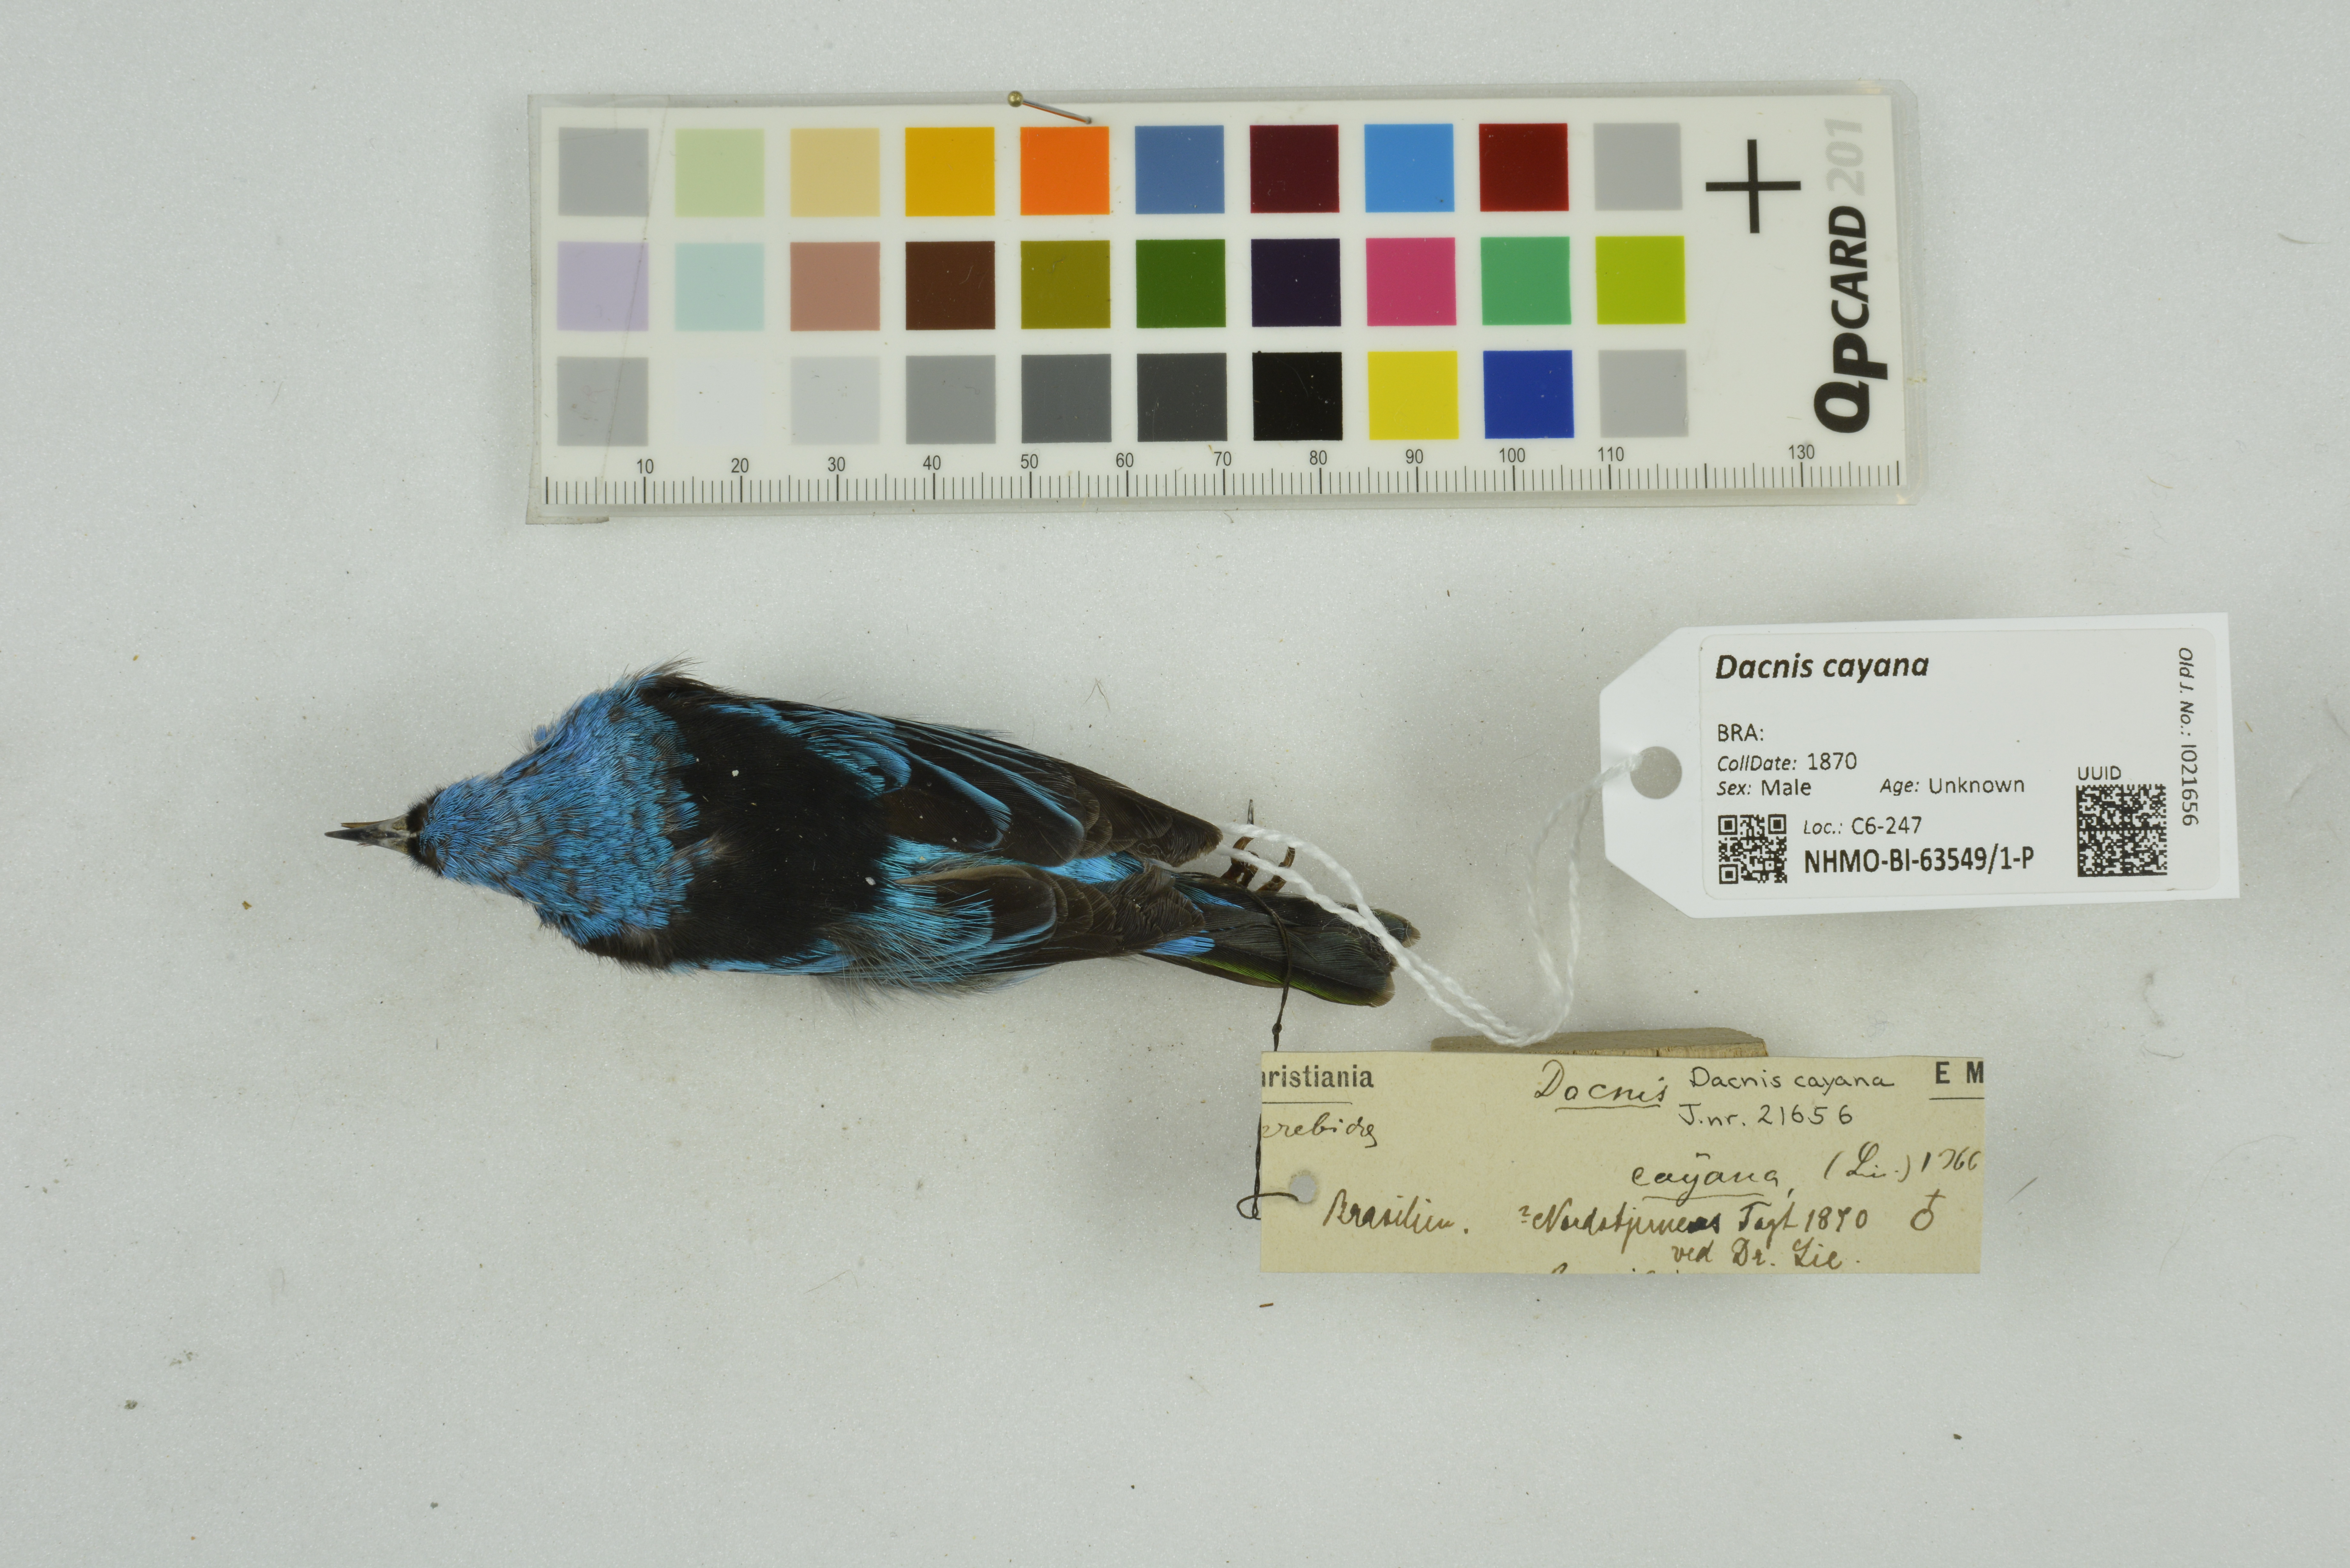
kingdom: Animalia
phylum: Chordata
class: Aves
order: Passeriformes
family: Thraupidae
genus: Dacnis
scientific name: Dacnis cayana
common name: Blue dacnis
